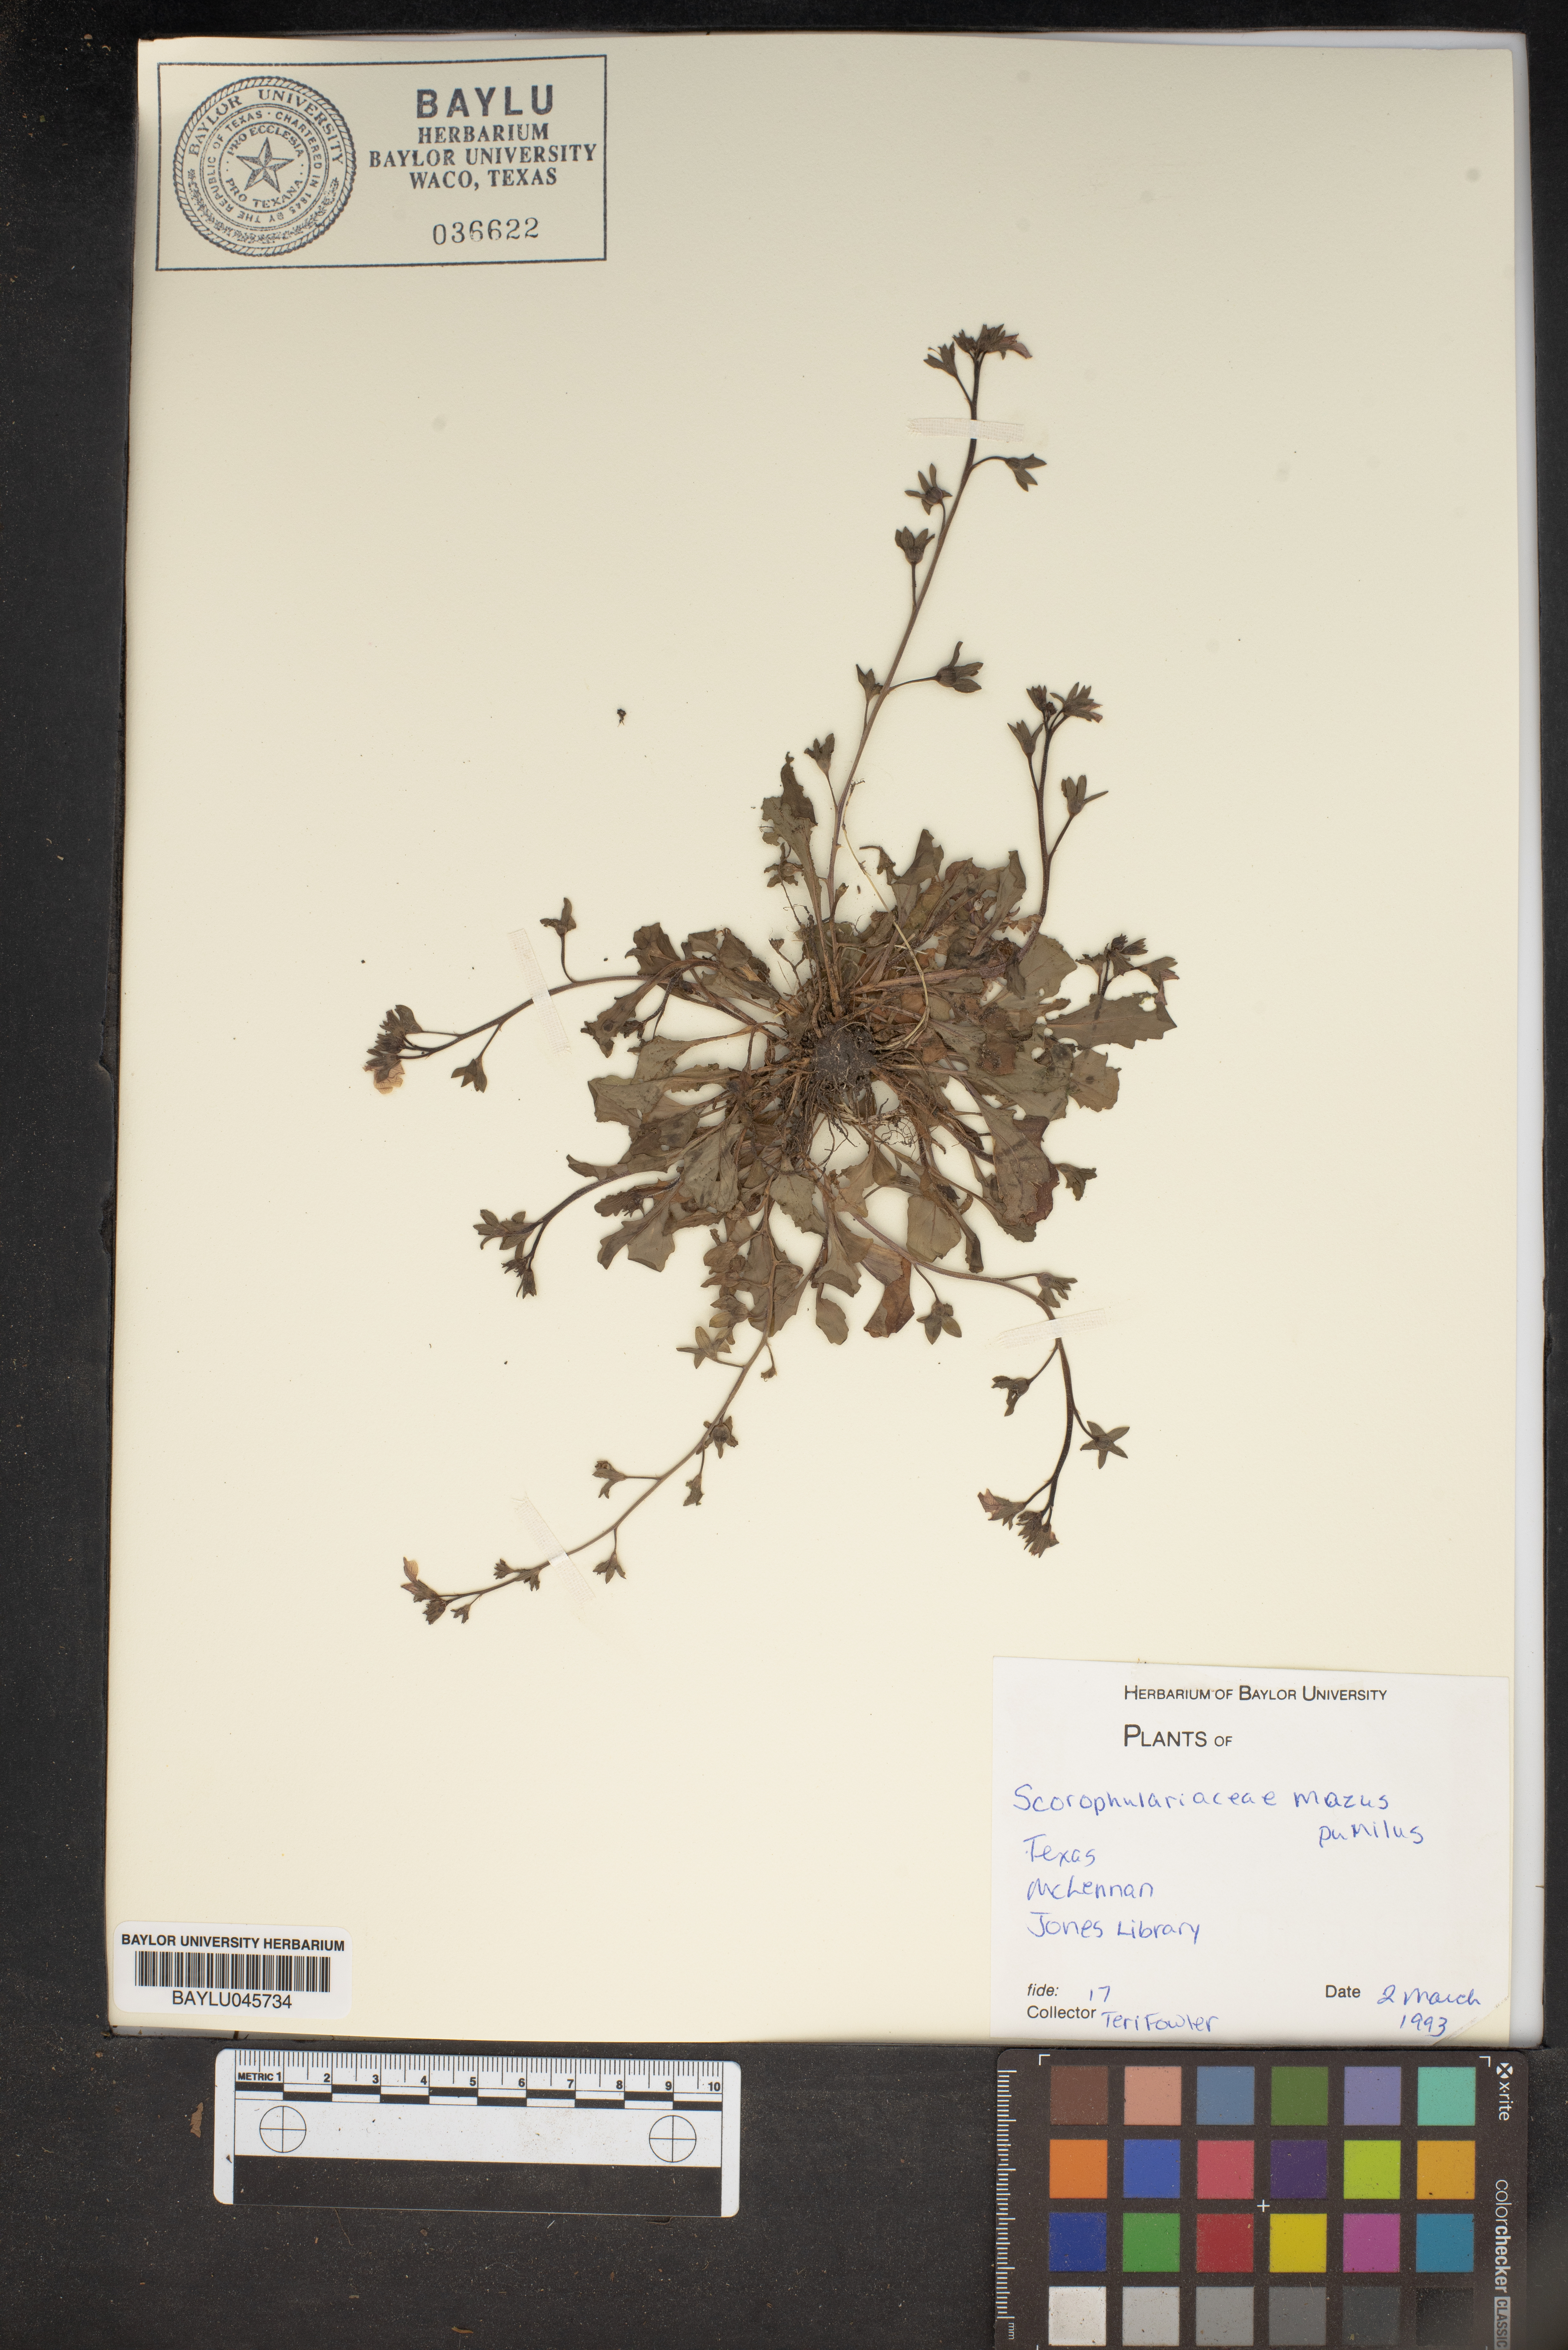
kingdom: Plantae
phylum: Tracheophyta
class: Magnoliopsida
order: Lamiales
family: Mazaceae
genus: Mazus
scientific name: Mazus pumilus
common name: Japanese mazus
